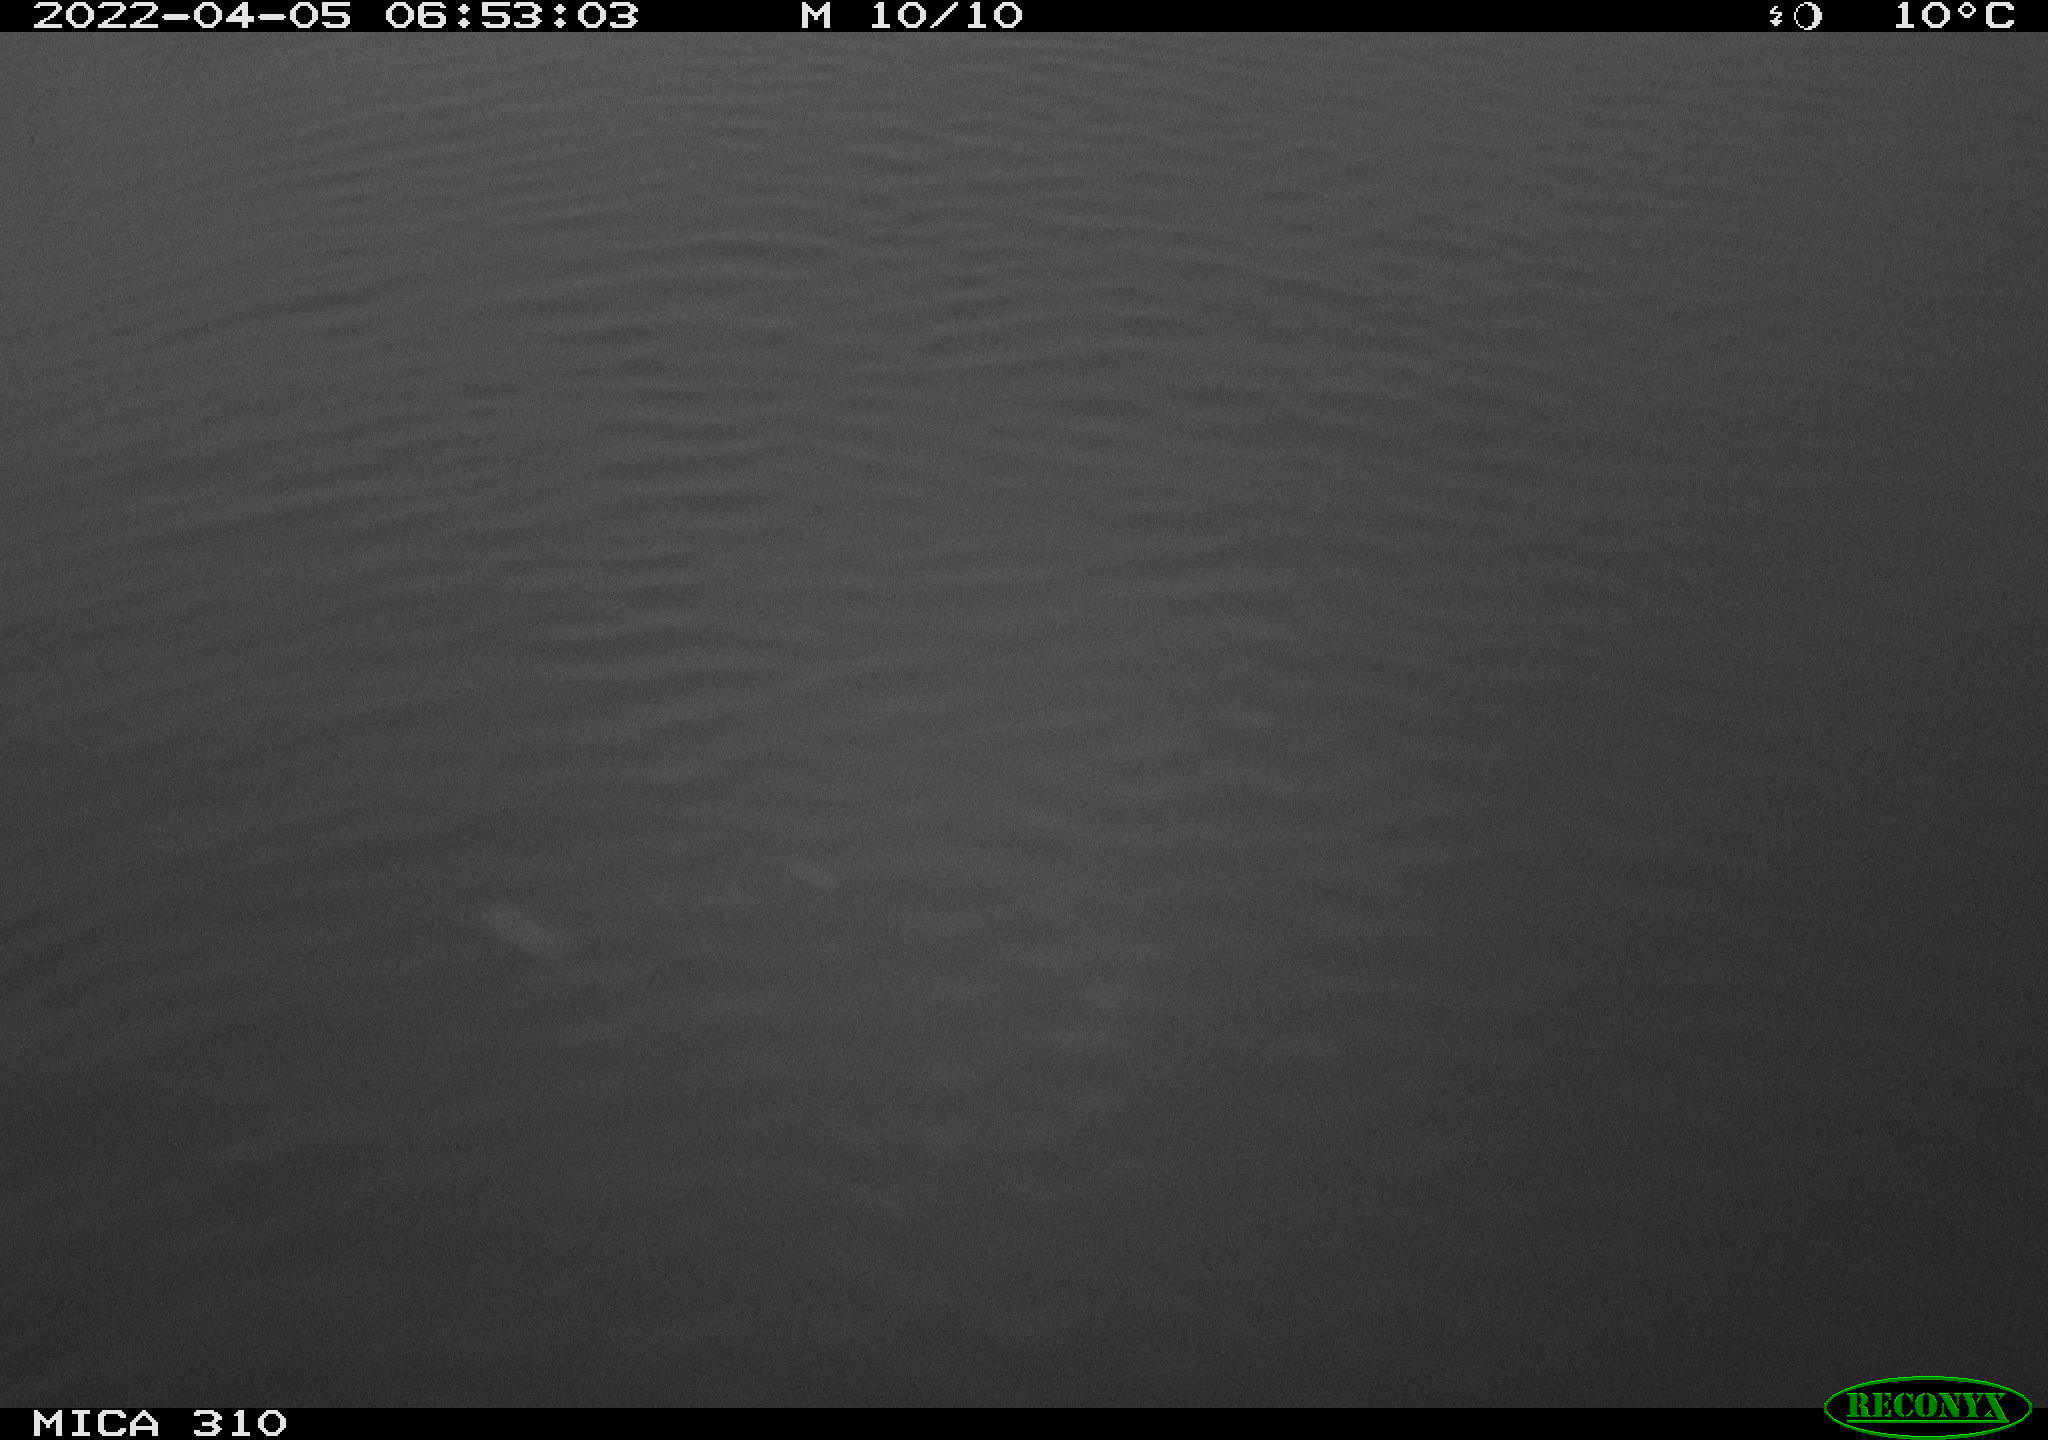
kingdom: Animalia
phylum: Chordata
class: Aves
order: Anseriformes
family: Anatidae
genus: Anas
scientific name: Anas platyrhynchos
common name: Mallard
